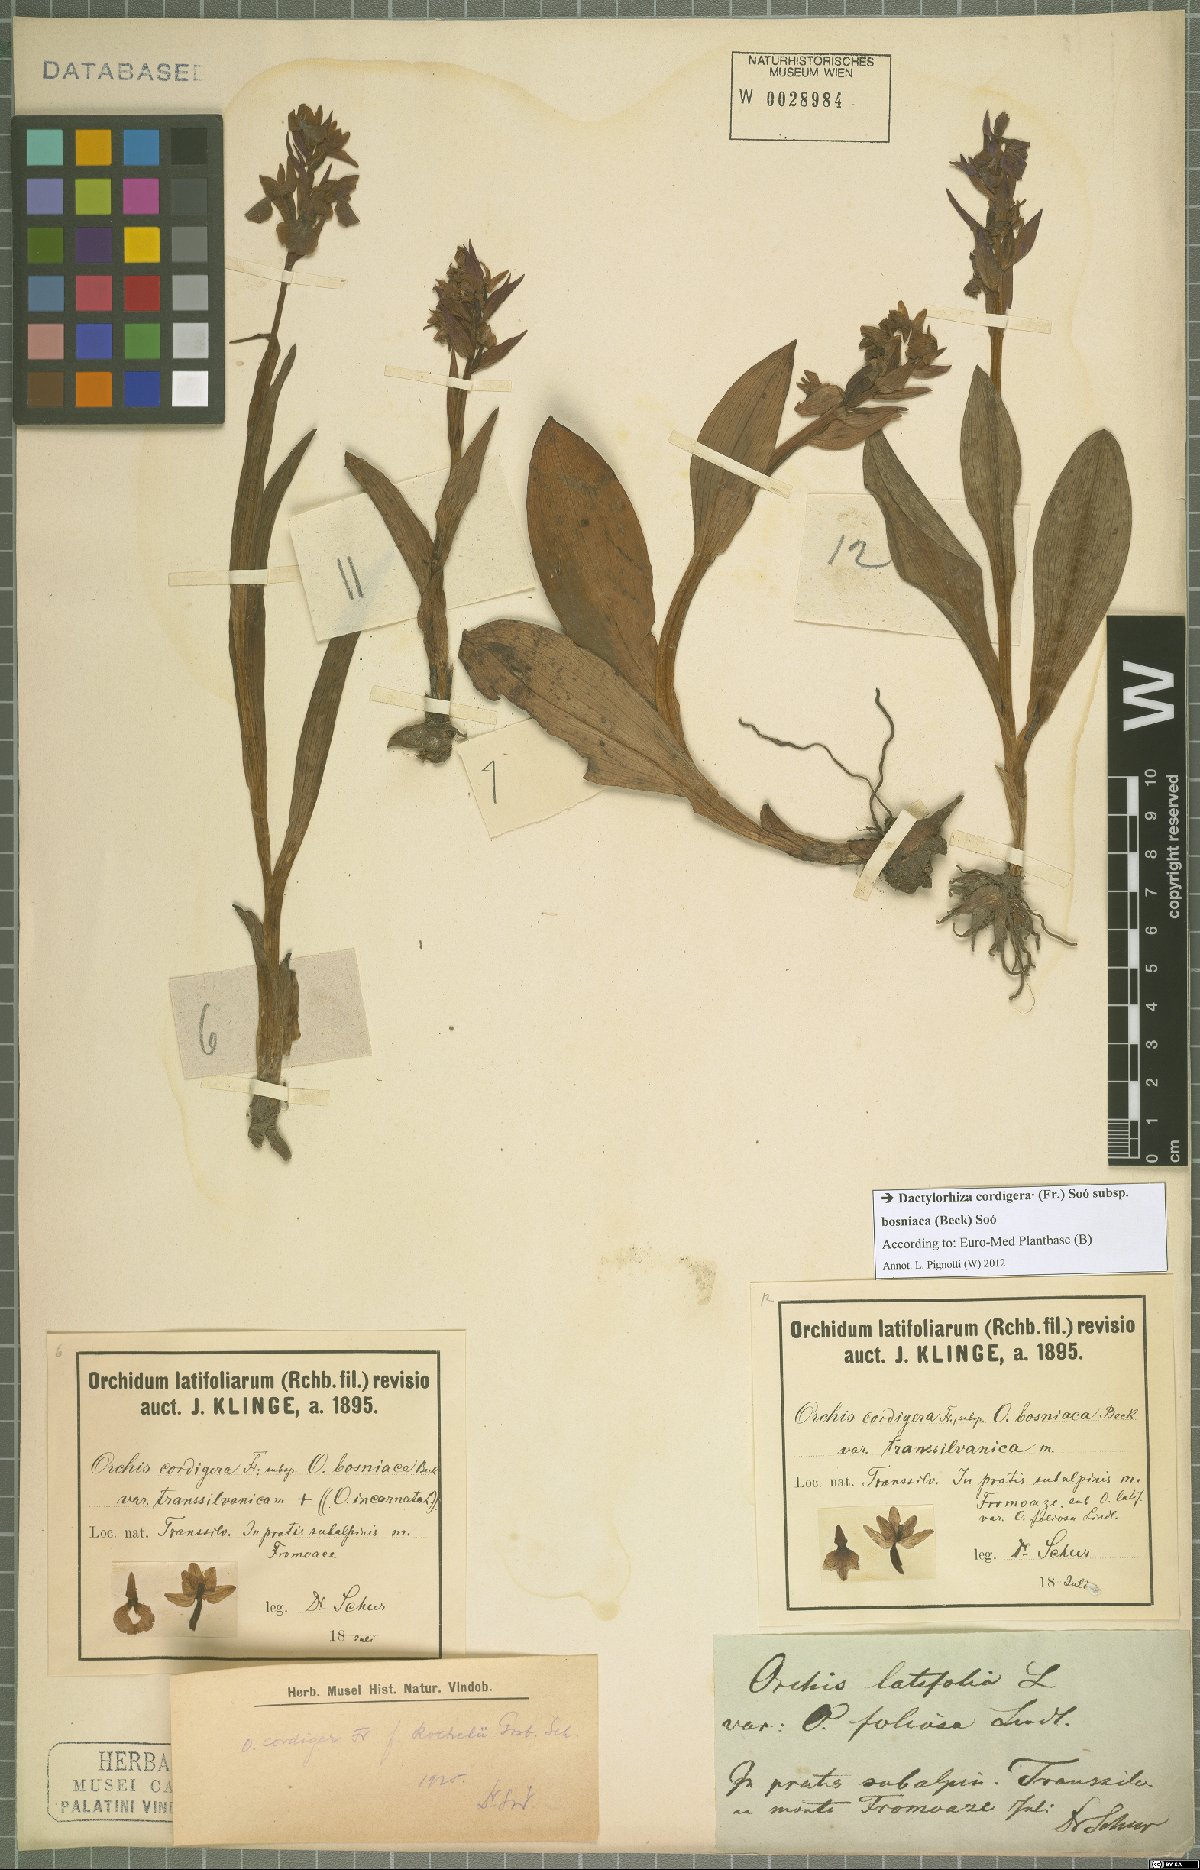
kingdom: Plantae
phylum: Tracheophyta
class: Liliopsida
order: Asparagales
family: Orchidaceae
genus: Dactylorhiza
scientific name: Dactylorhiza majalis
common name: Marsh orchid
